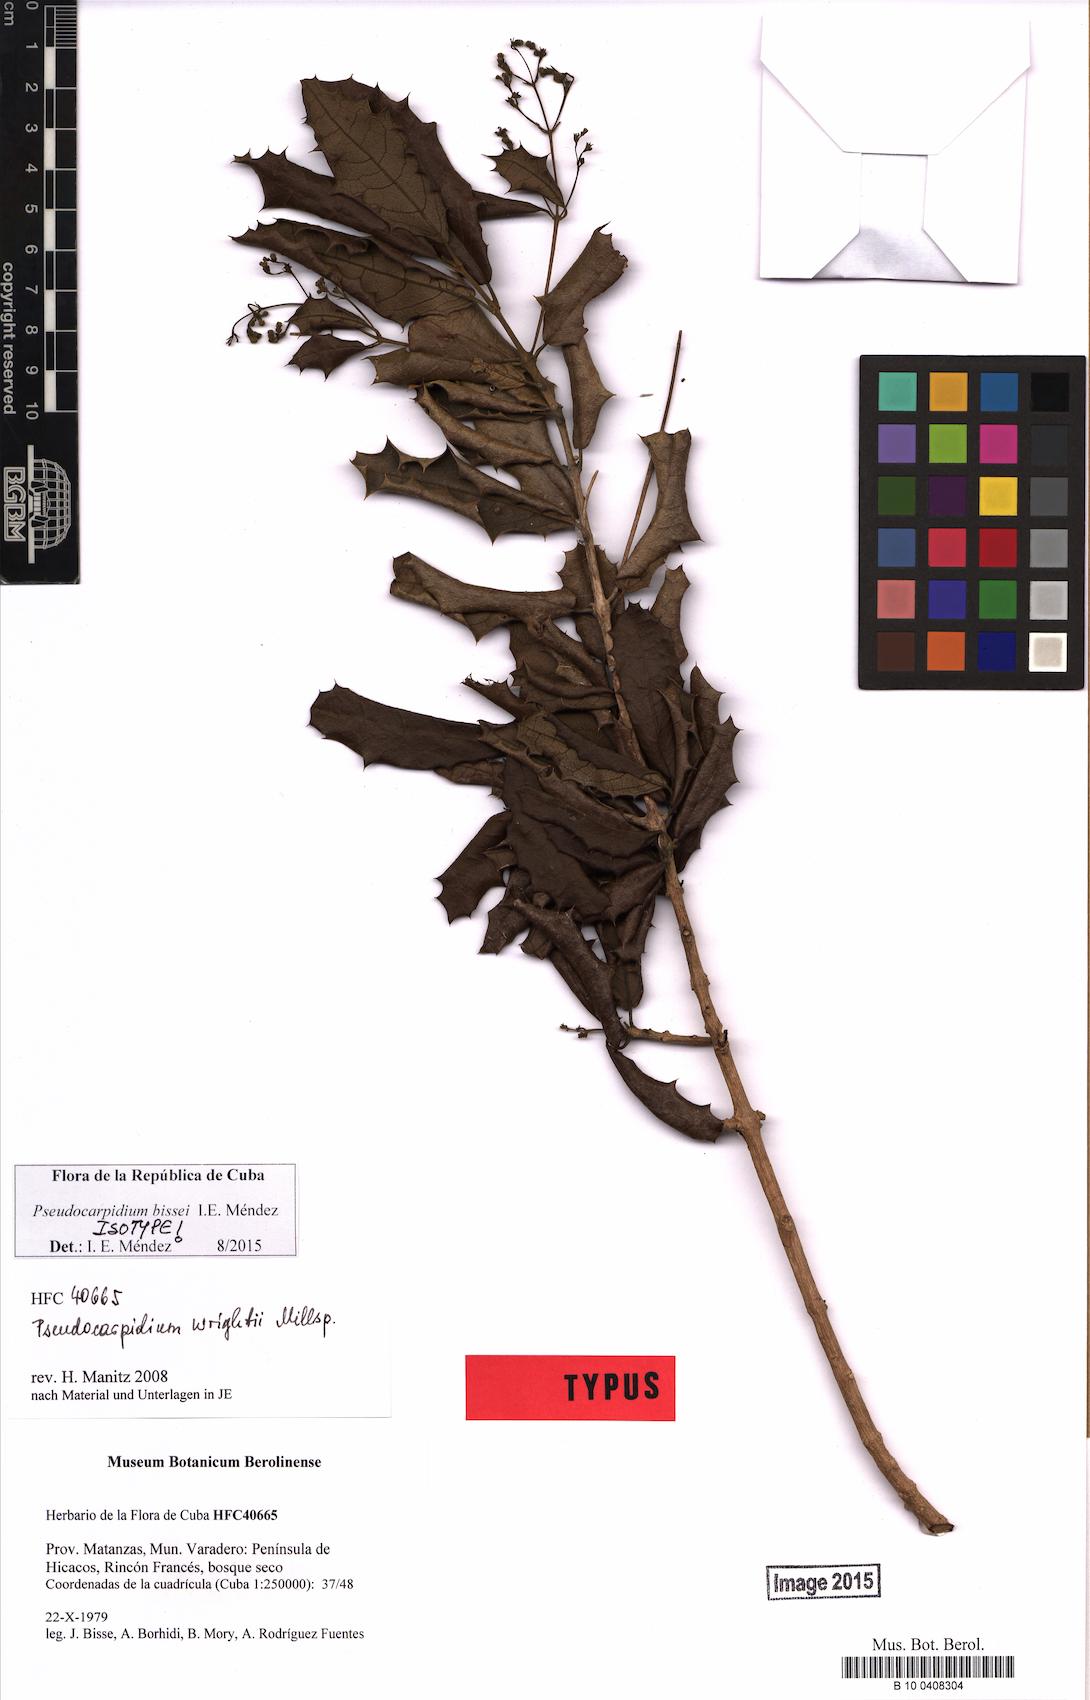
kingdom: Plantae
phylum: Tracheophyta
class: Magnoliopsida
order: Lamiales
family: Lamiaceae
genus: Pseudocarpidium
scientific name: Pseudocarpidium
